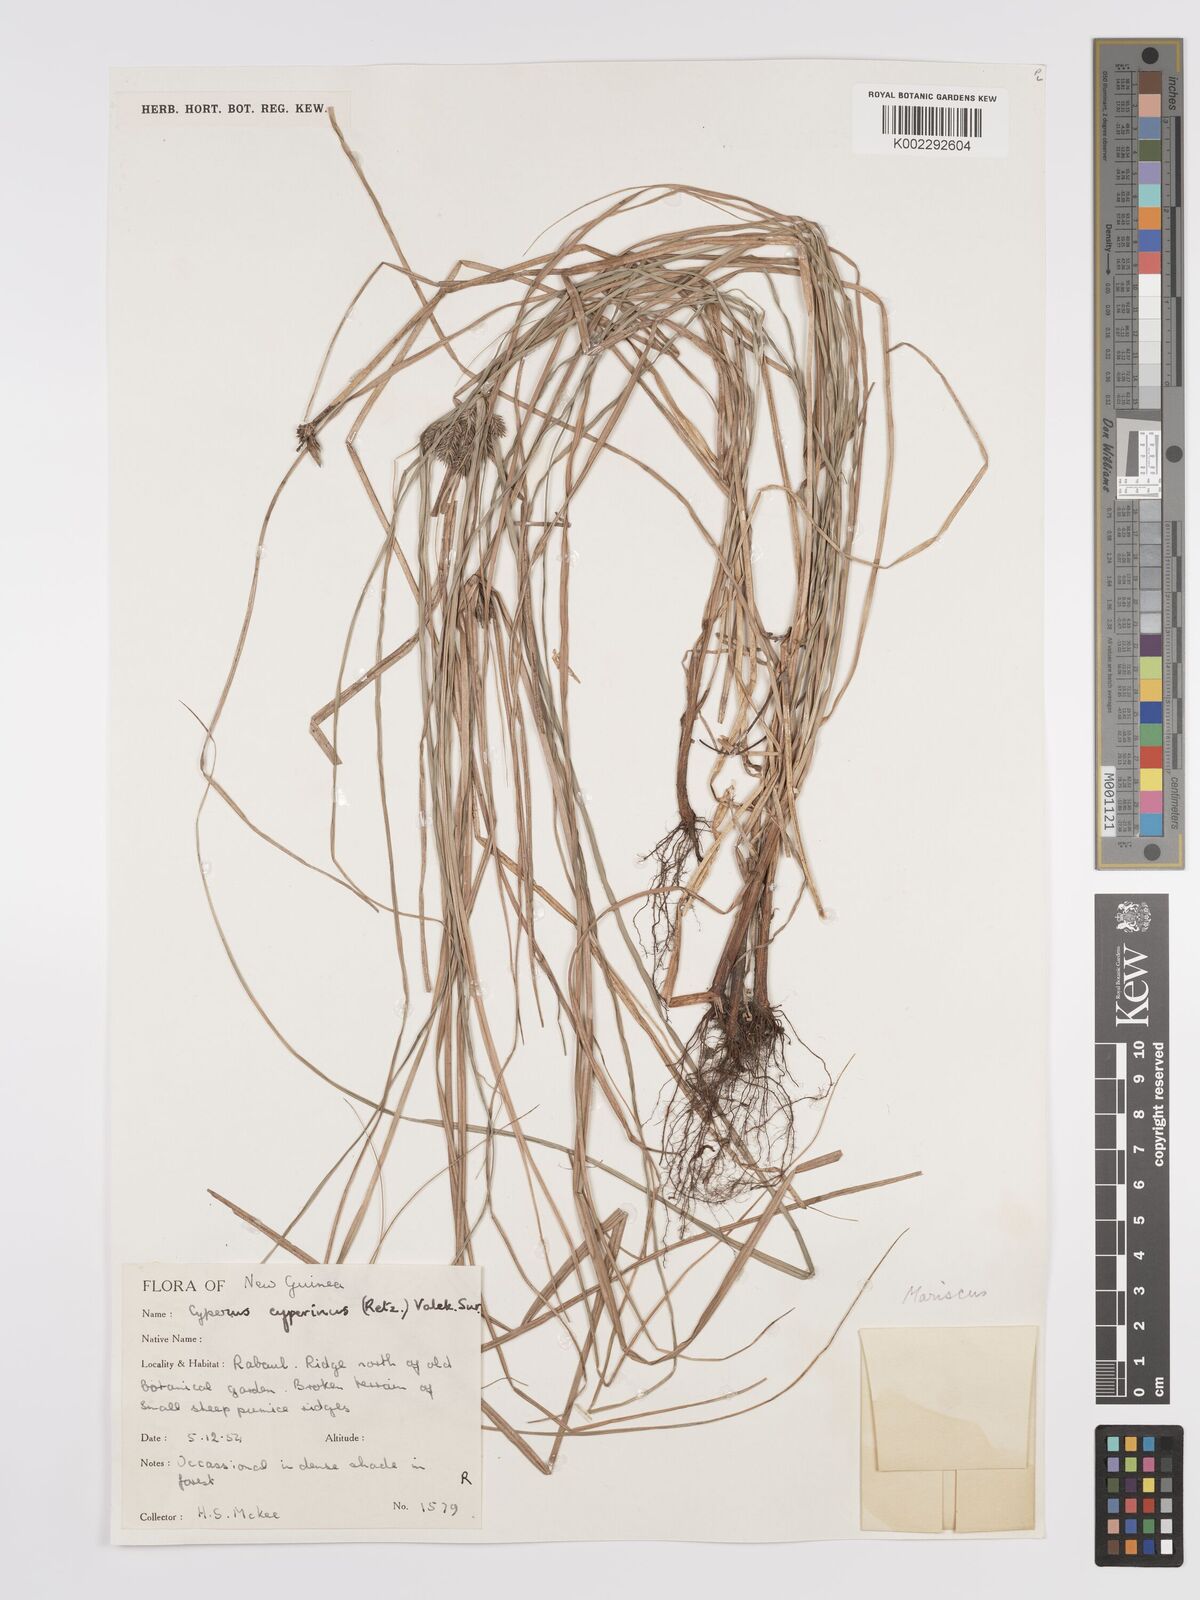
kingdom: Plantae
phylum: Tracheophyta
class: Liliopsida
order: Poales
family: Cyperaceae
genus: Cyperus
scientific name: Cyperus cyperinus
